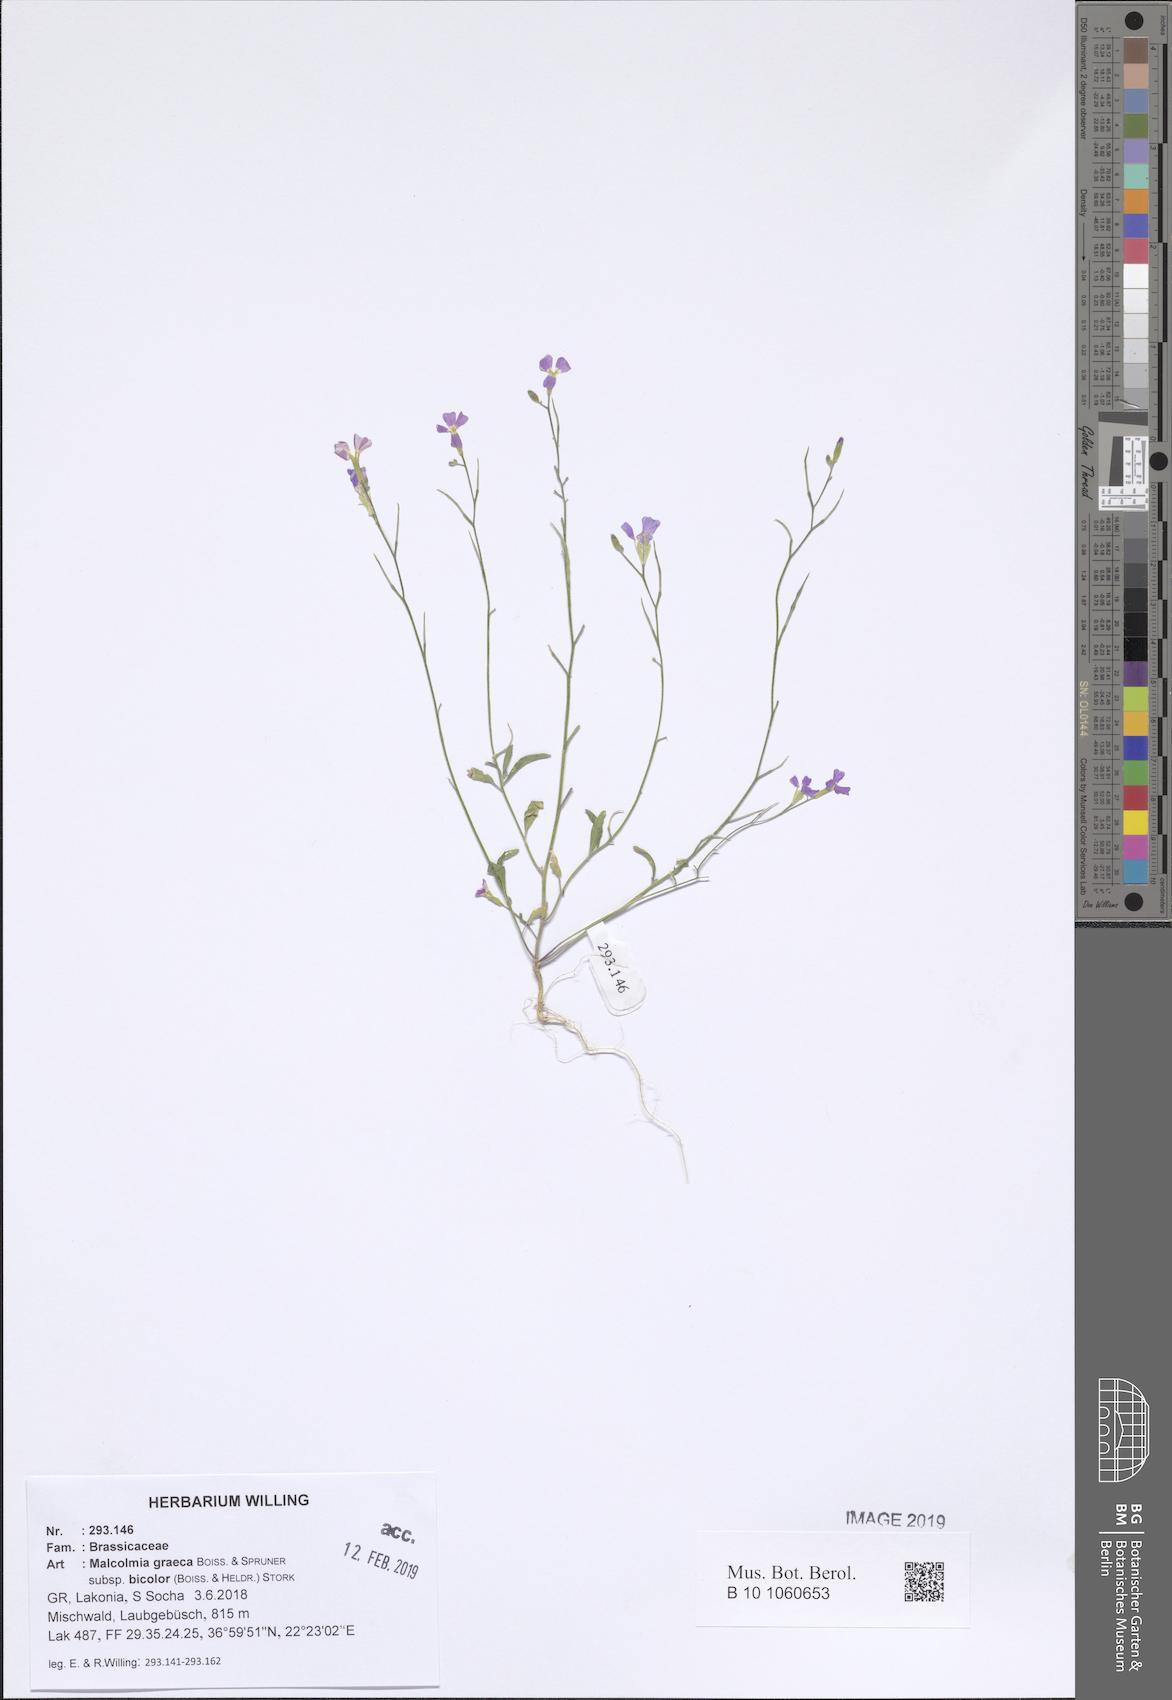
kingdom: Plantae
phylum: Tracheophyta
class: Magnoliopsida
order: Brassicales
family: Brassicaceae
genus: Malcolmia
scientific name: Malcolmia graeca
